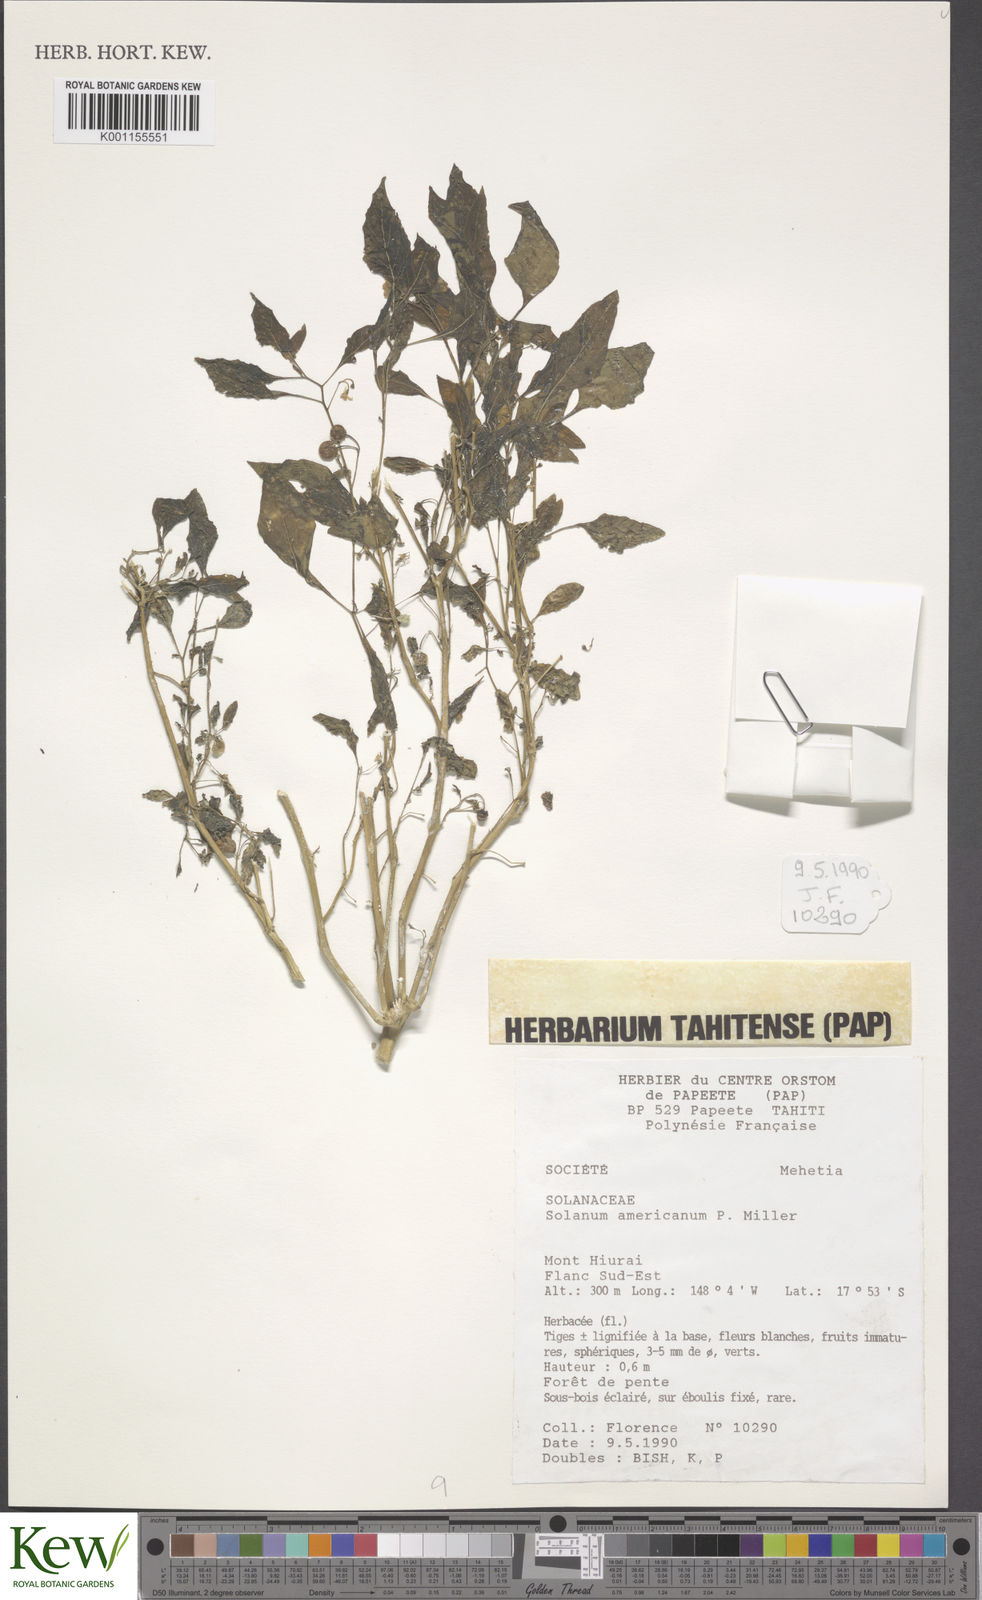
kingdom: Plantae
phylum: Tracheophyta
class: Magnoliopsida
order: Solanales
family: Solanaceae
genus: Solanum
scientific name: Solanum americanum
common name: American black nightshade
